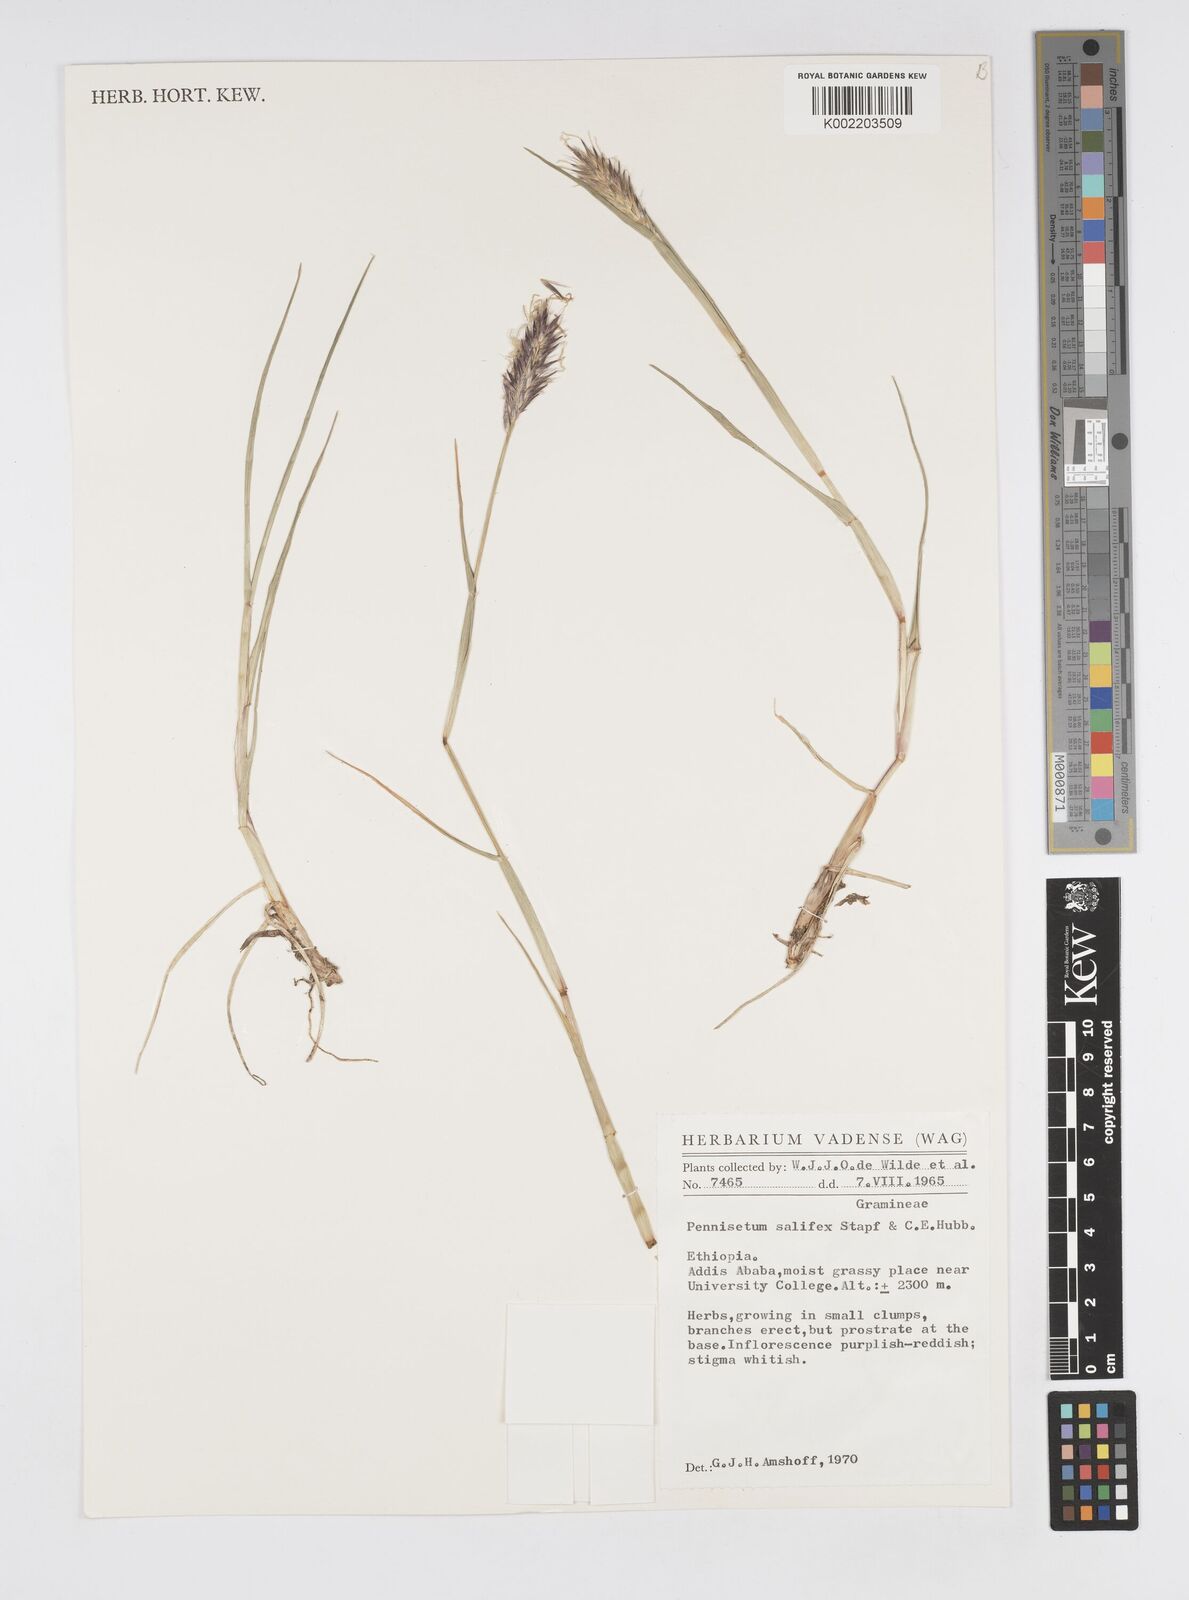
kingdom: Plantae
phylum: Tracheophyta
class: Liliopsida
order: Poales
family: Poaceae
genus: Cenchrus
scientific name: Cenchrus riparius
